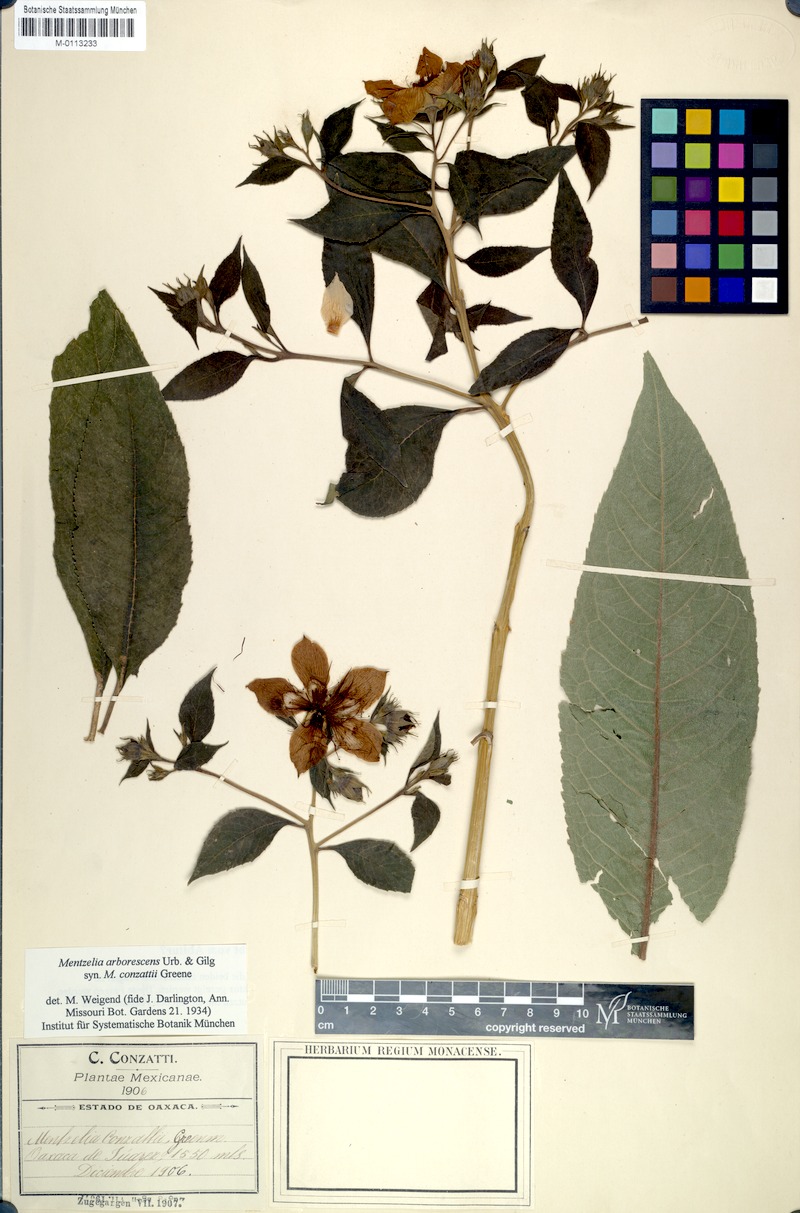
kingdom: Plantae
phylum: Tracheophyta
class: Magnoliopsida
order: Cornales
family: Loasaceae
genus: Mentzelia
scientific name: Mentzelia arborescens
